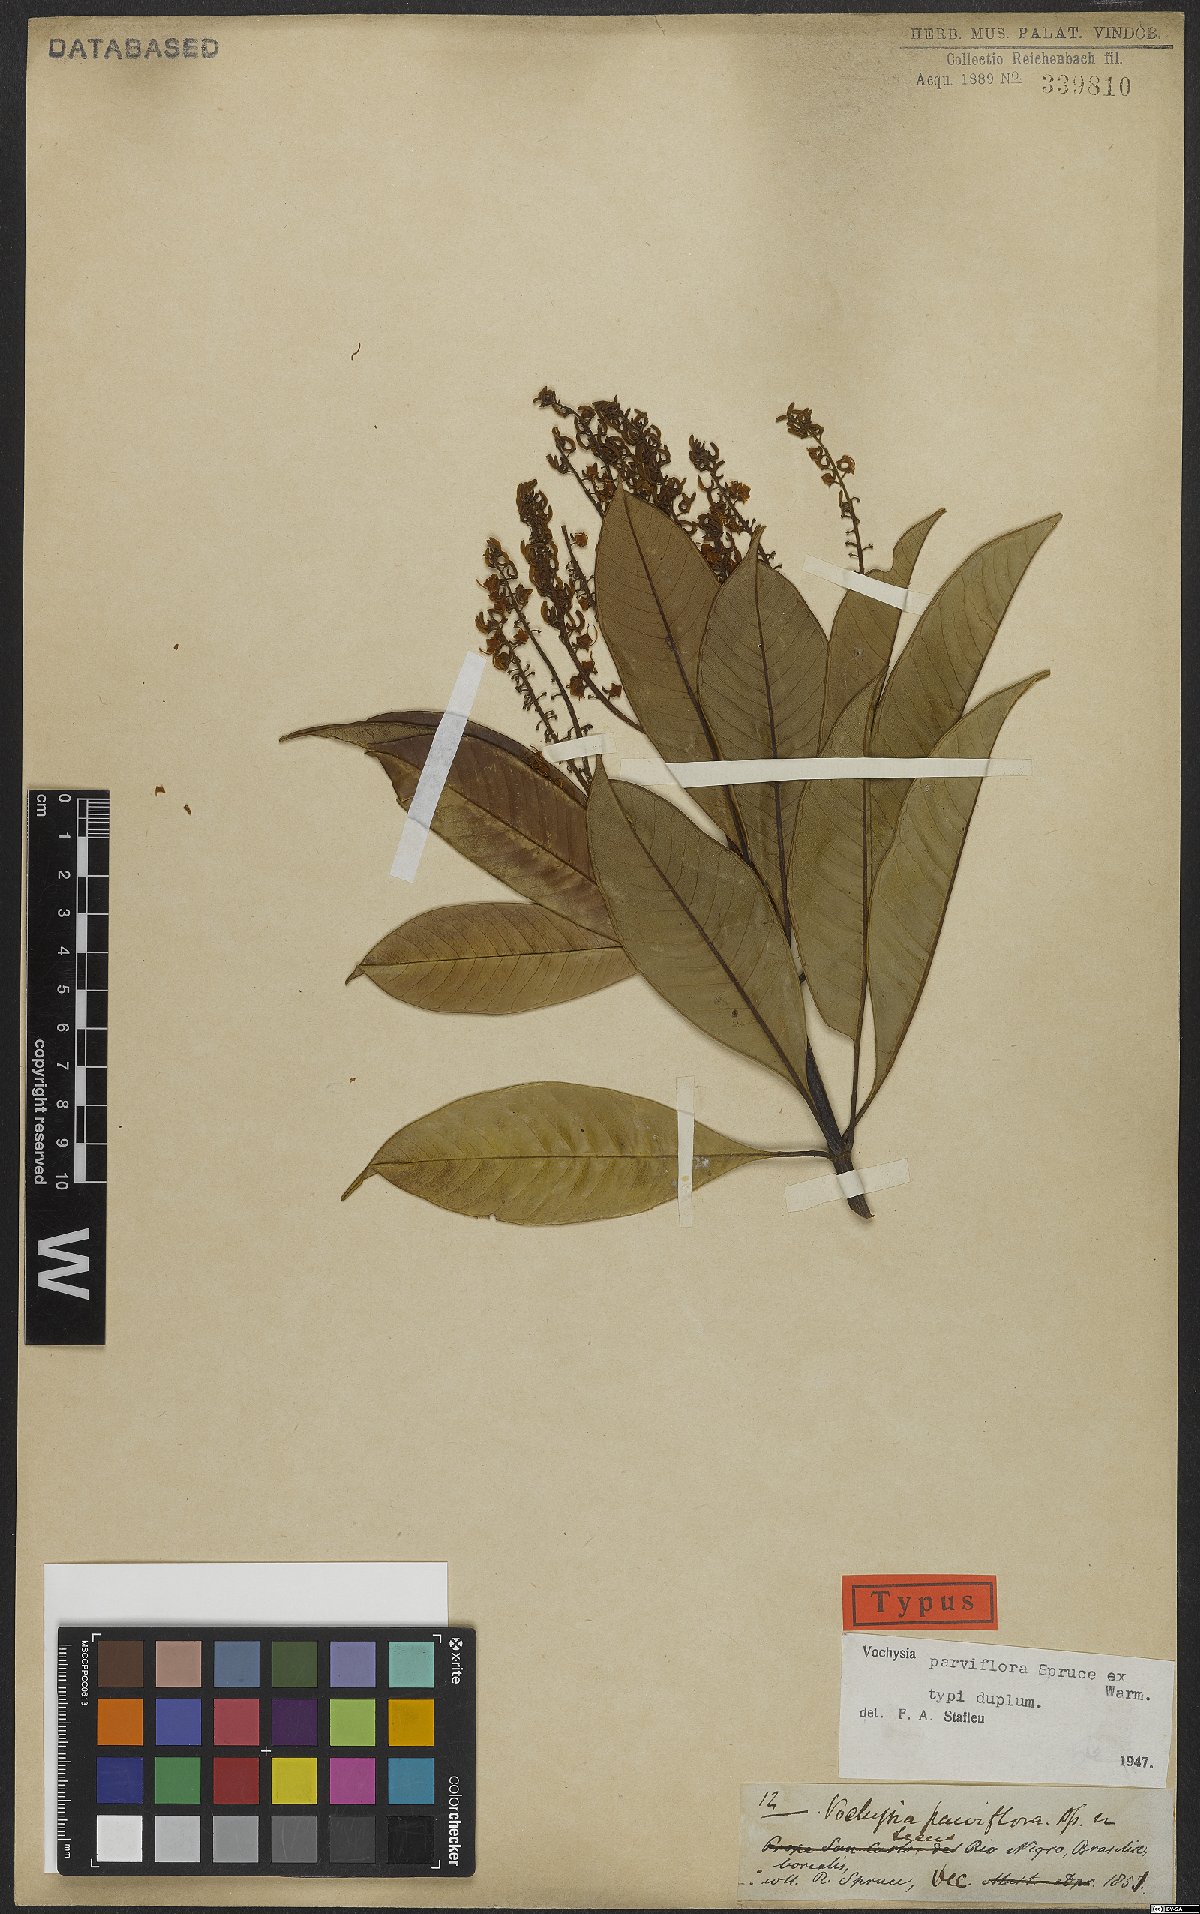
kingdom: Plantae
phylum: Tracheophyta
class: Magnoliopsida
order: Myrtales
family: Vochysiaceae
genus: Vochysia
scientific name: Vochysia parviflora
